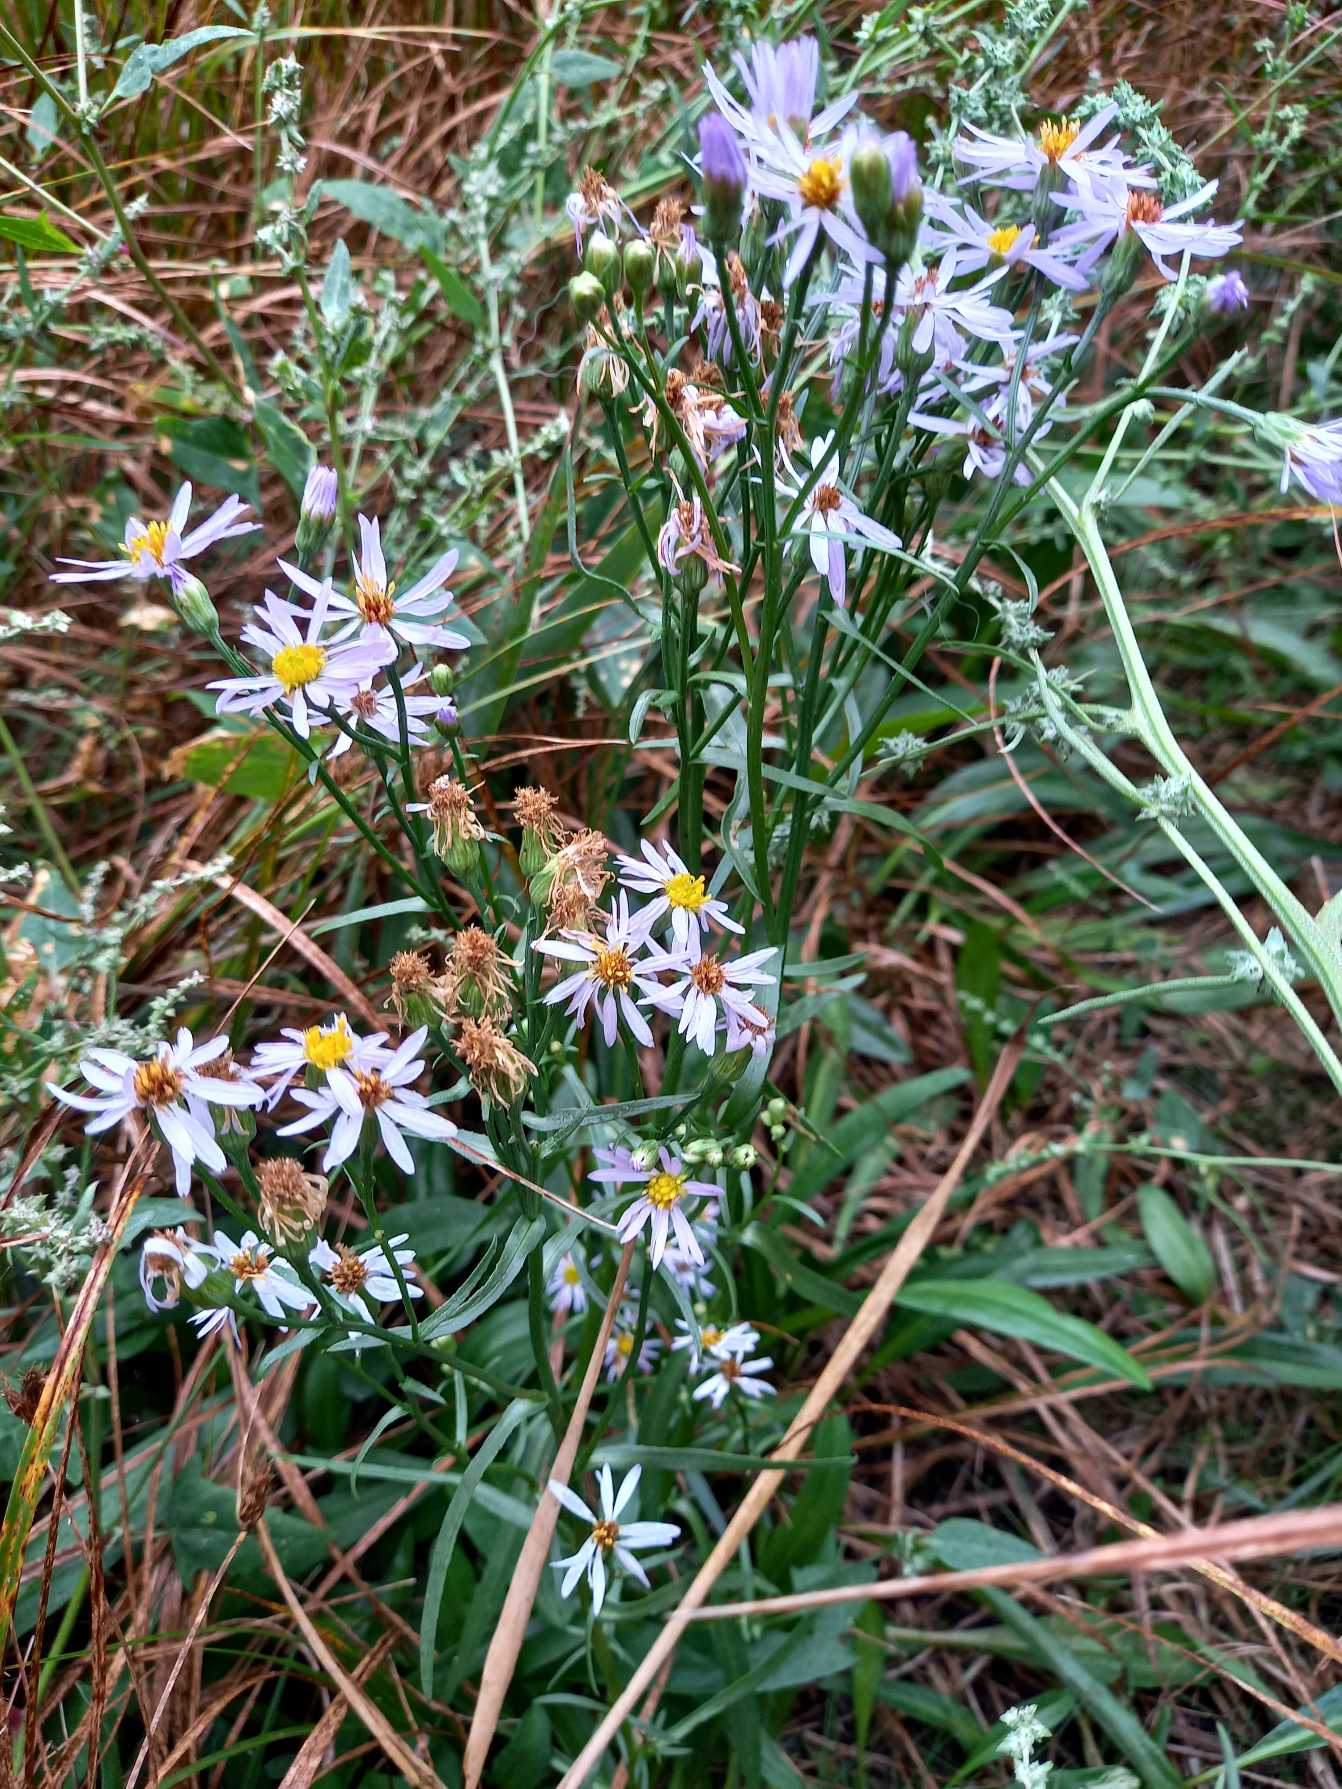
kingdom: Plantae
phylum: Tracheophyta
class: Magnoliopsida
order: Asterales
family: Asteraceae
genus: Tripolium
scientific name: Tripolium pannonicum
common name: Strandasters
